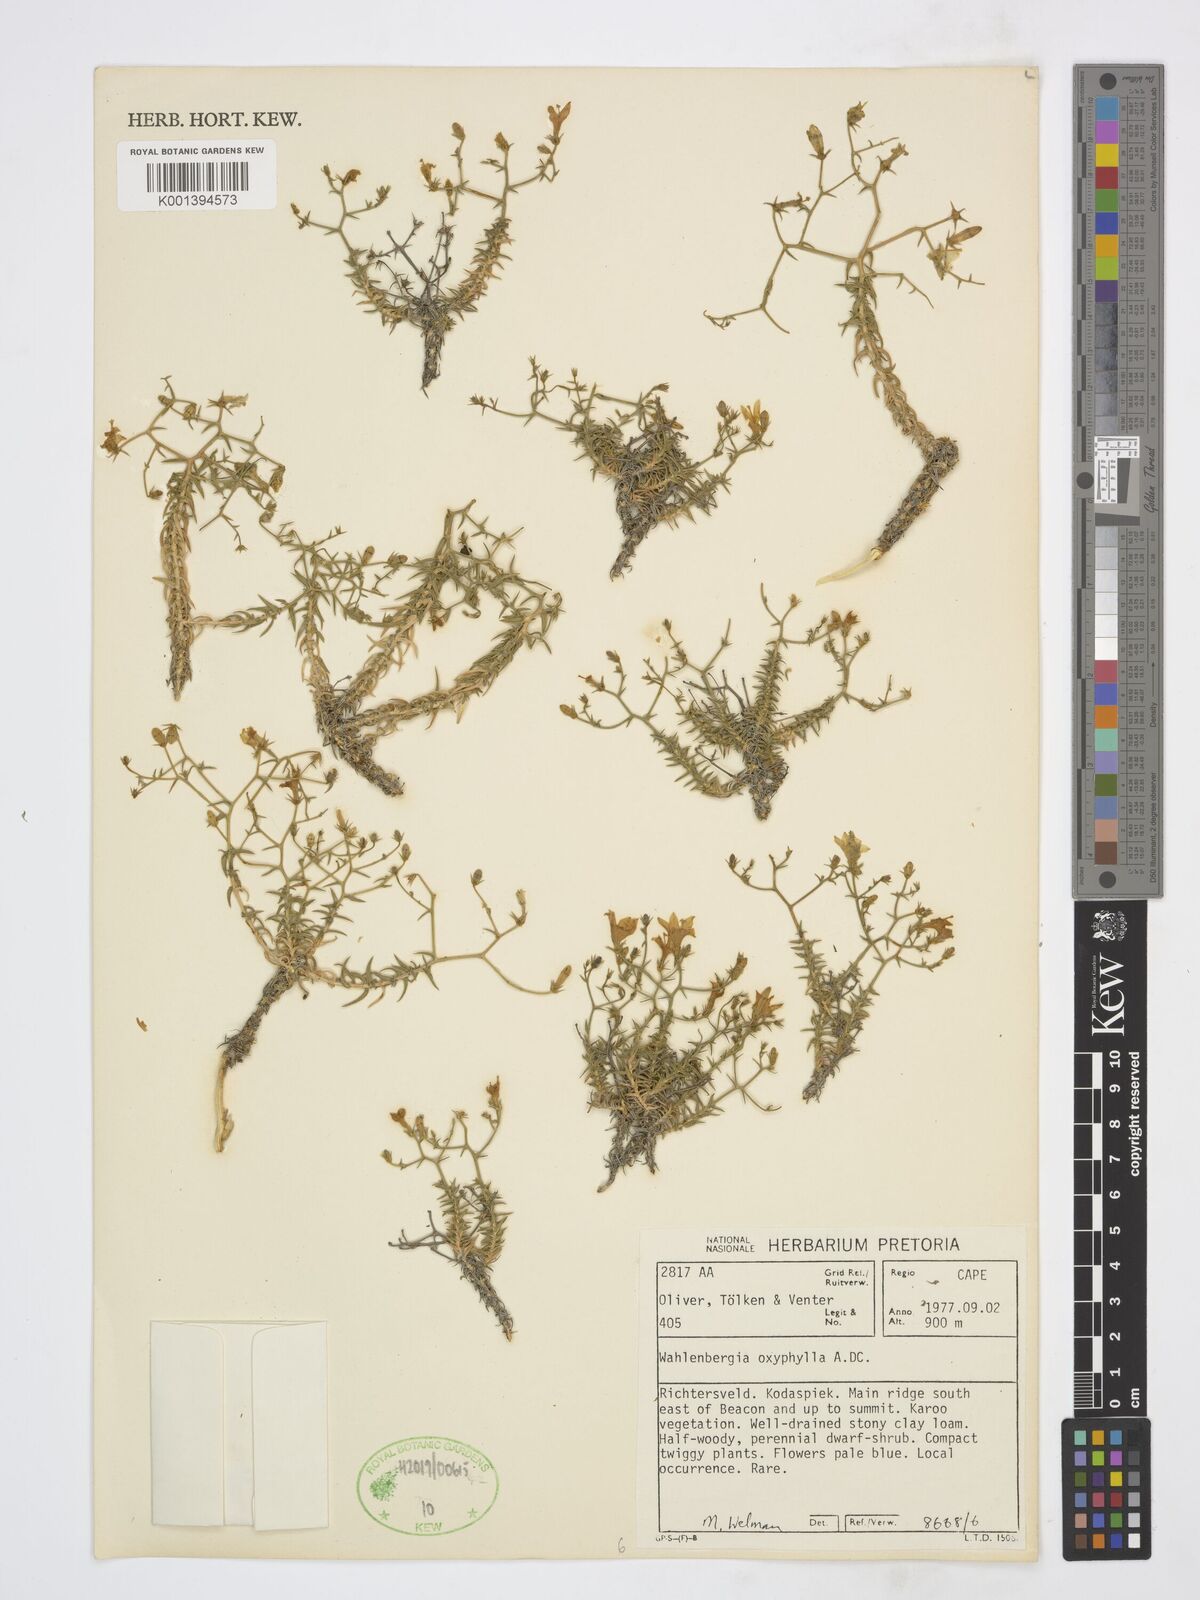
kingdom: Plantae
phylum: Tracheophyta
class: Magnoliopsida
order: Asterales
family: Campanulaceae
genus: Wahlenbergia
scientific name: Wahlenbergia oxyphylla
